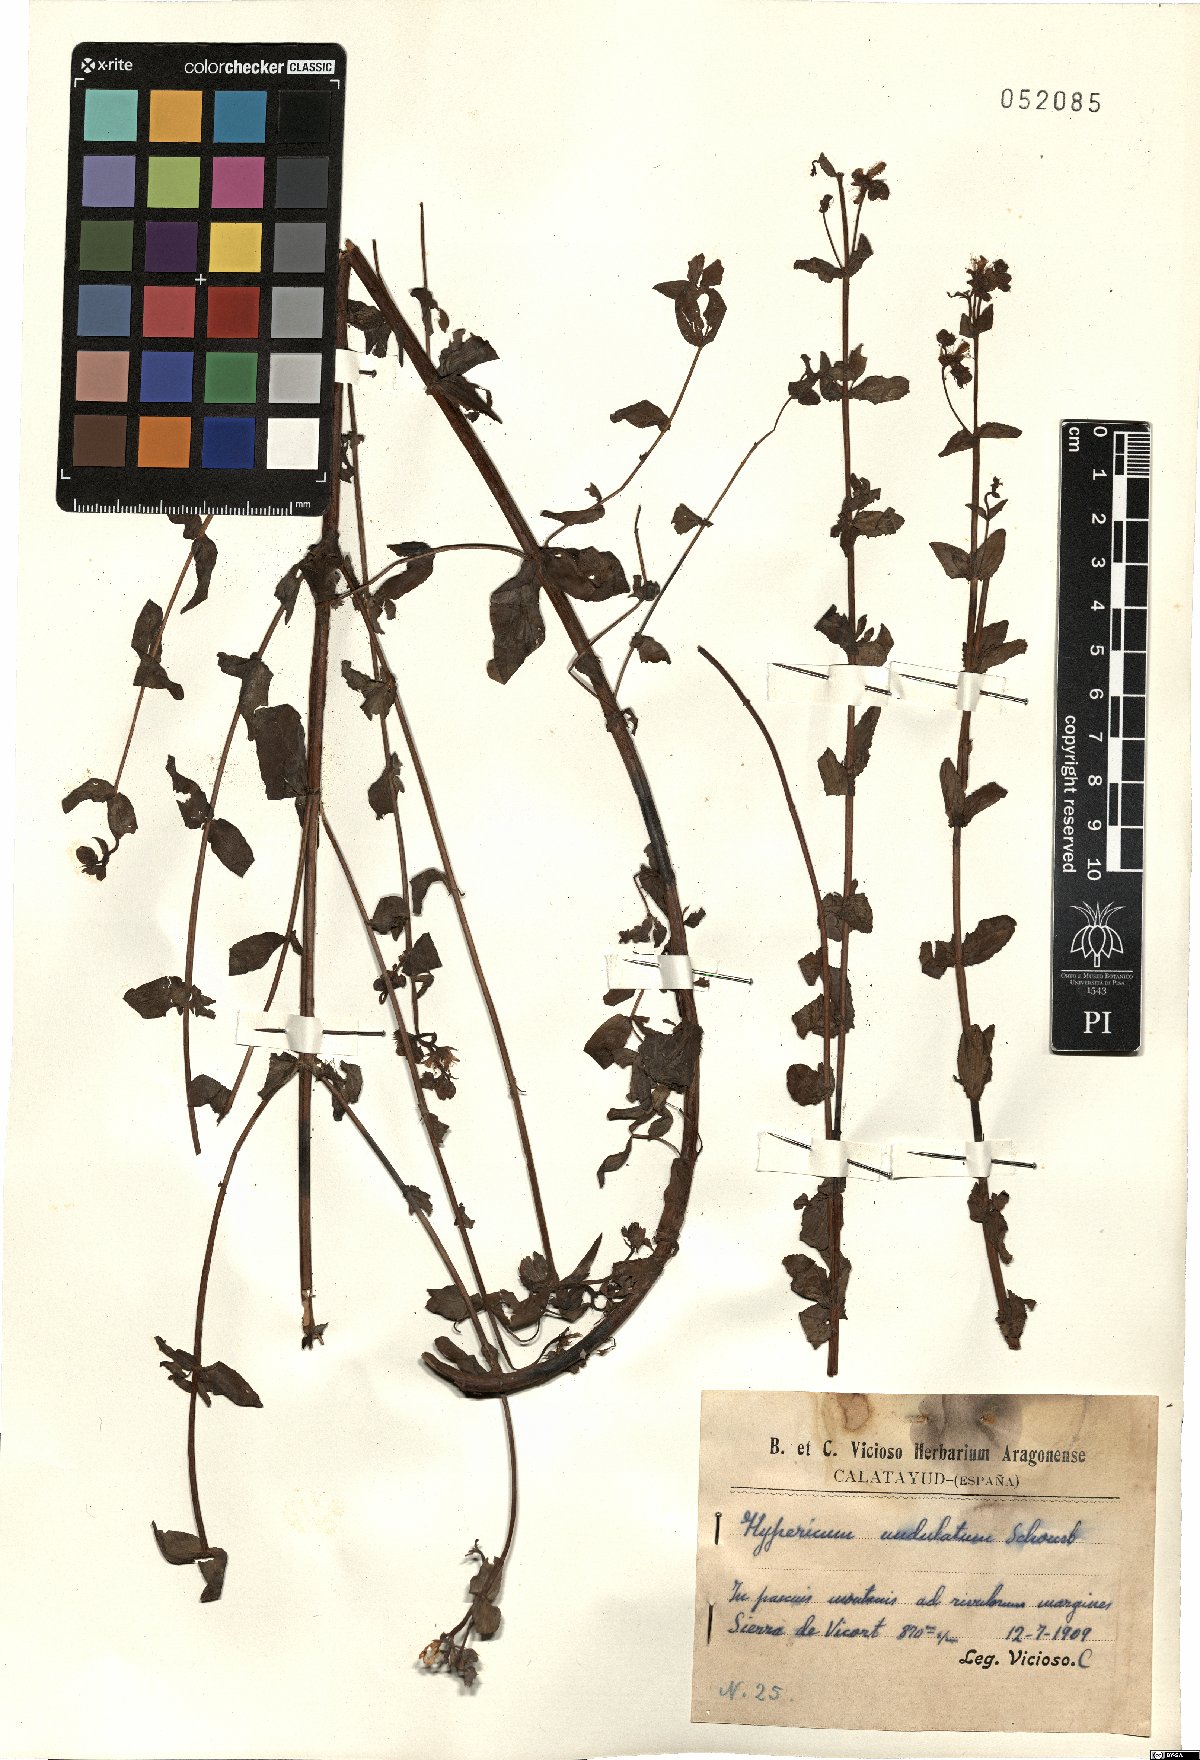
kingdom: Plantae
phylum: Tracheophyta
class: Magnoliopsida
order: Malpighiales
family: Hypericaceae
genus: Hypericum
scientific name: Hypericum undulatum
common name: Wavy st. john's-wort
